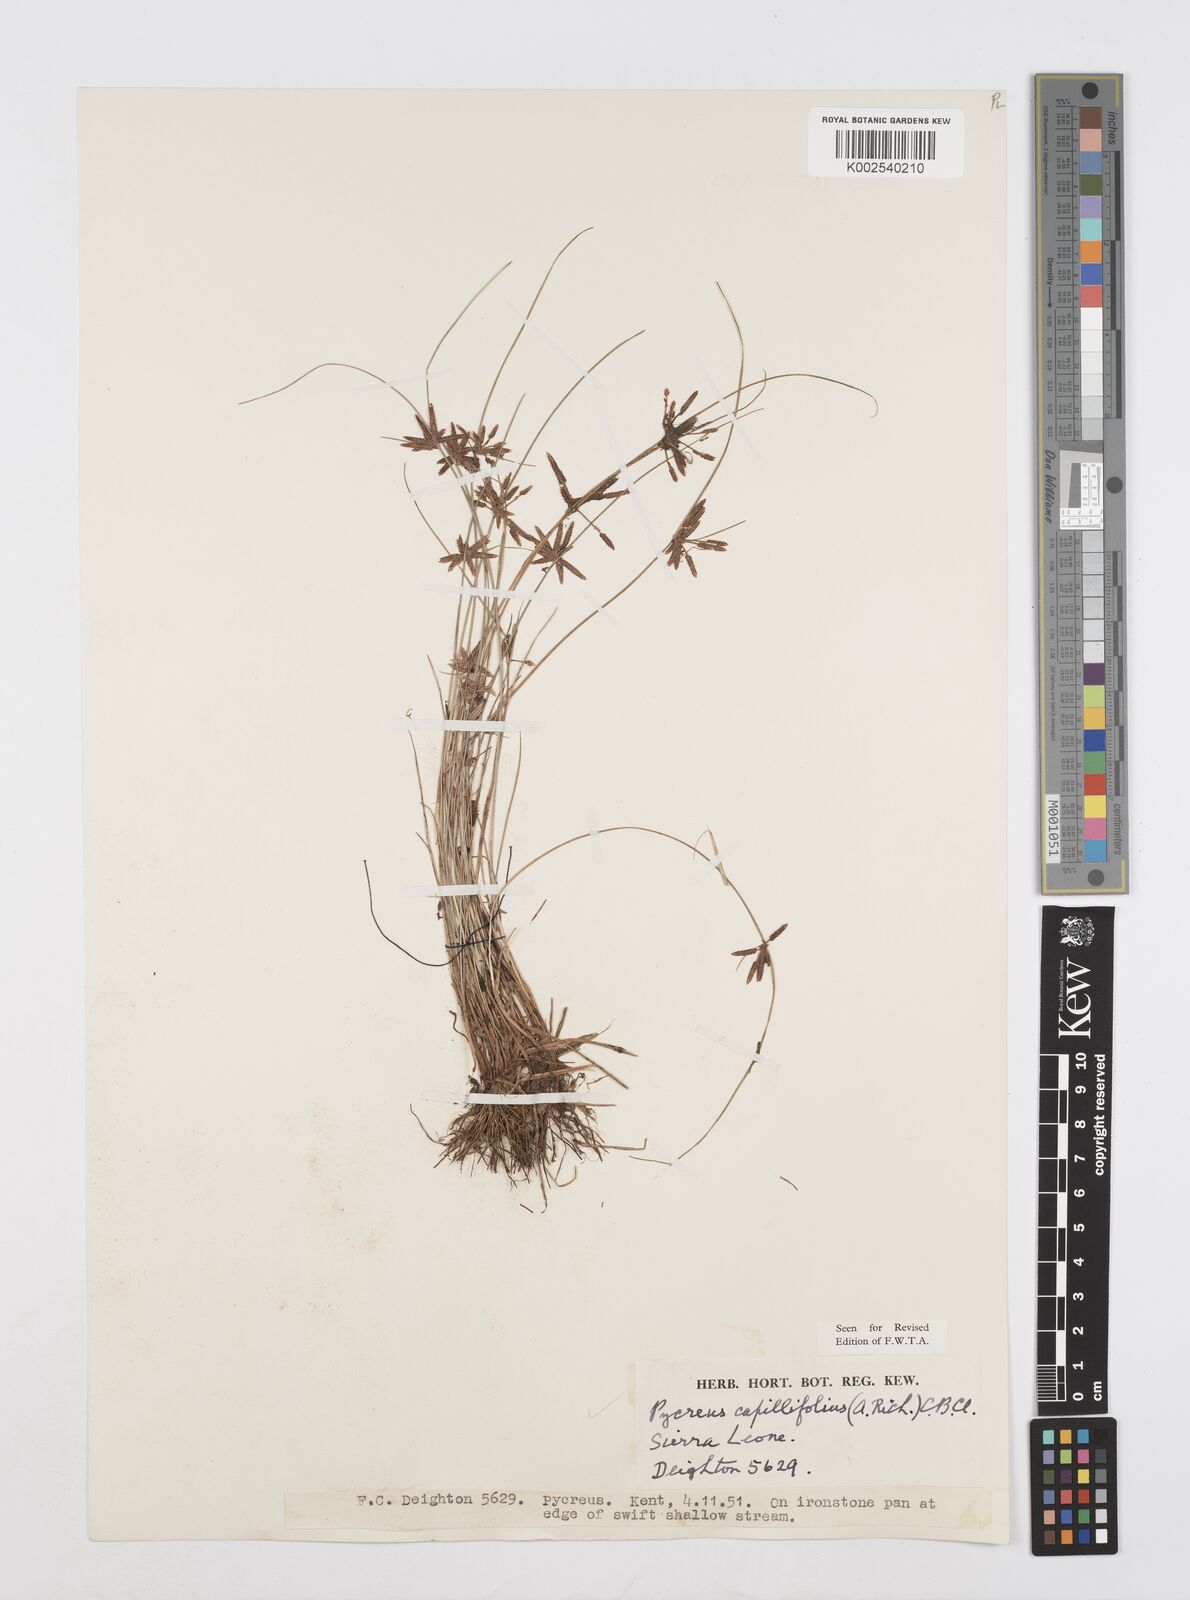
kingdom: Plantae
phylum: Tracheophyta
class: Liliopsida
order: Poales
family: Cyperaceae
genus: Cyperus
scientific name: Cyperus capillifolius
